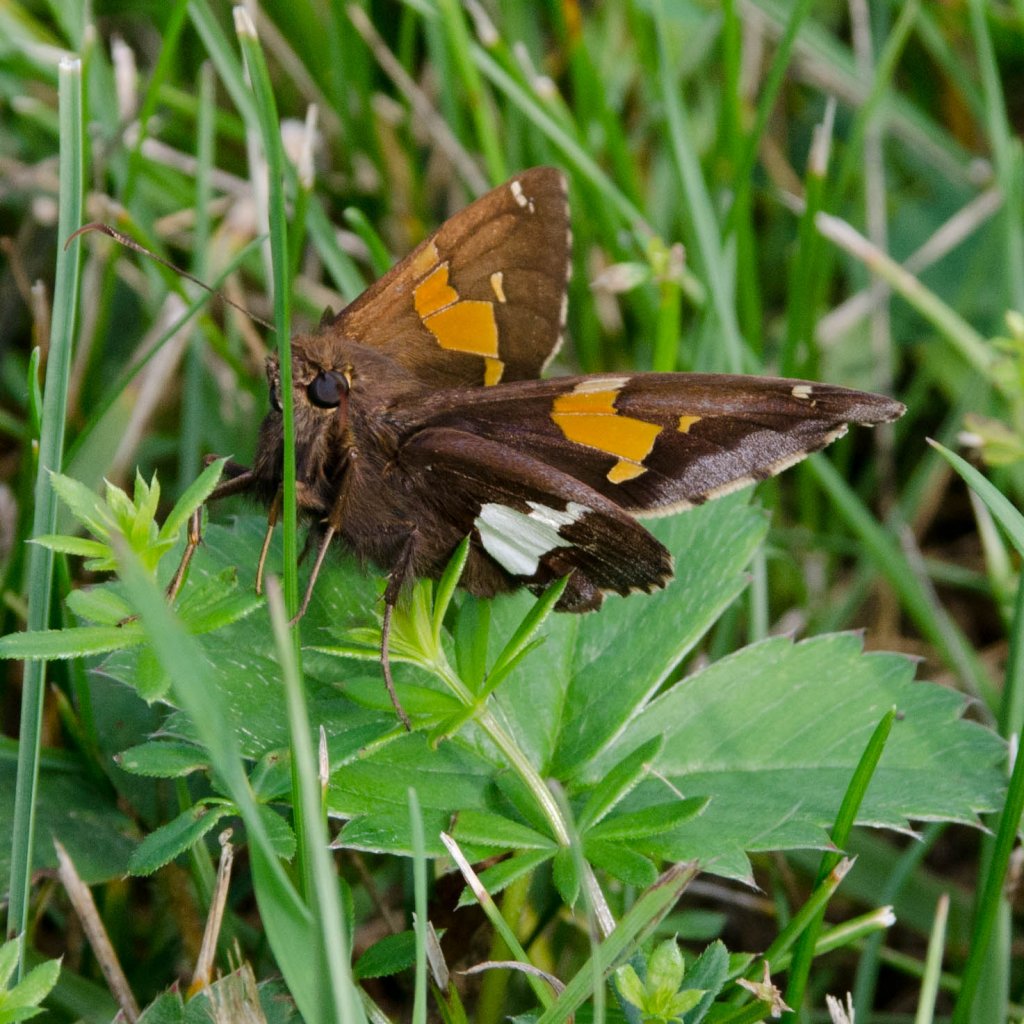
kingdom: Animalia
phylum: Arthropoda
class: Insecta
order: Lepidoptera
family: Hesperiidae
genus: Epargyreus
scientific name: Epargyreus clarus
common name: Silver-spotted Skipper
